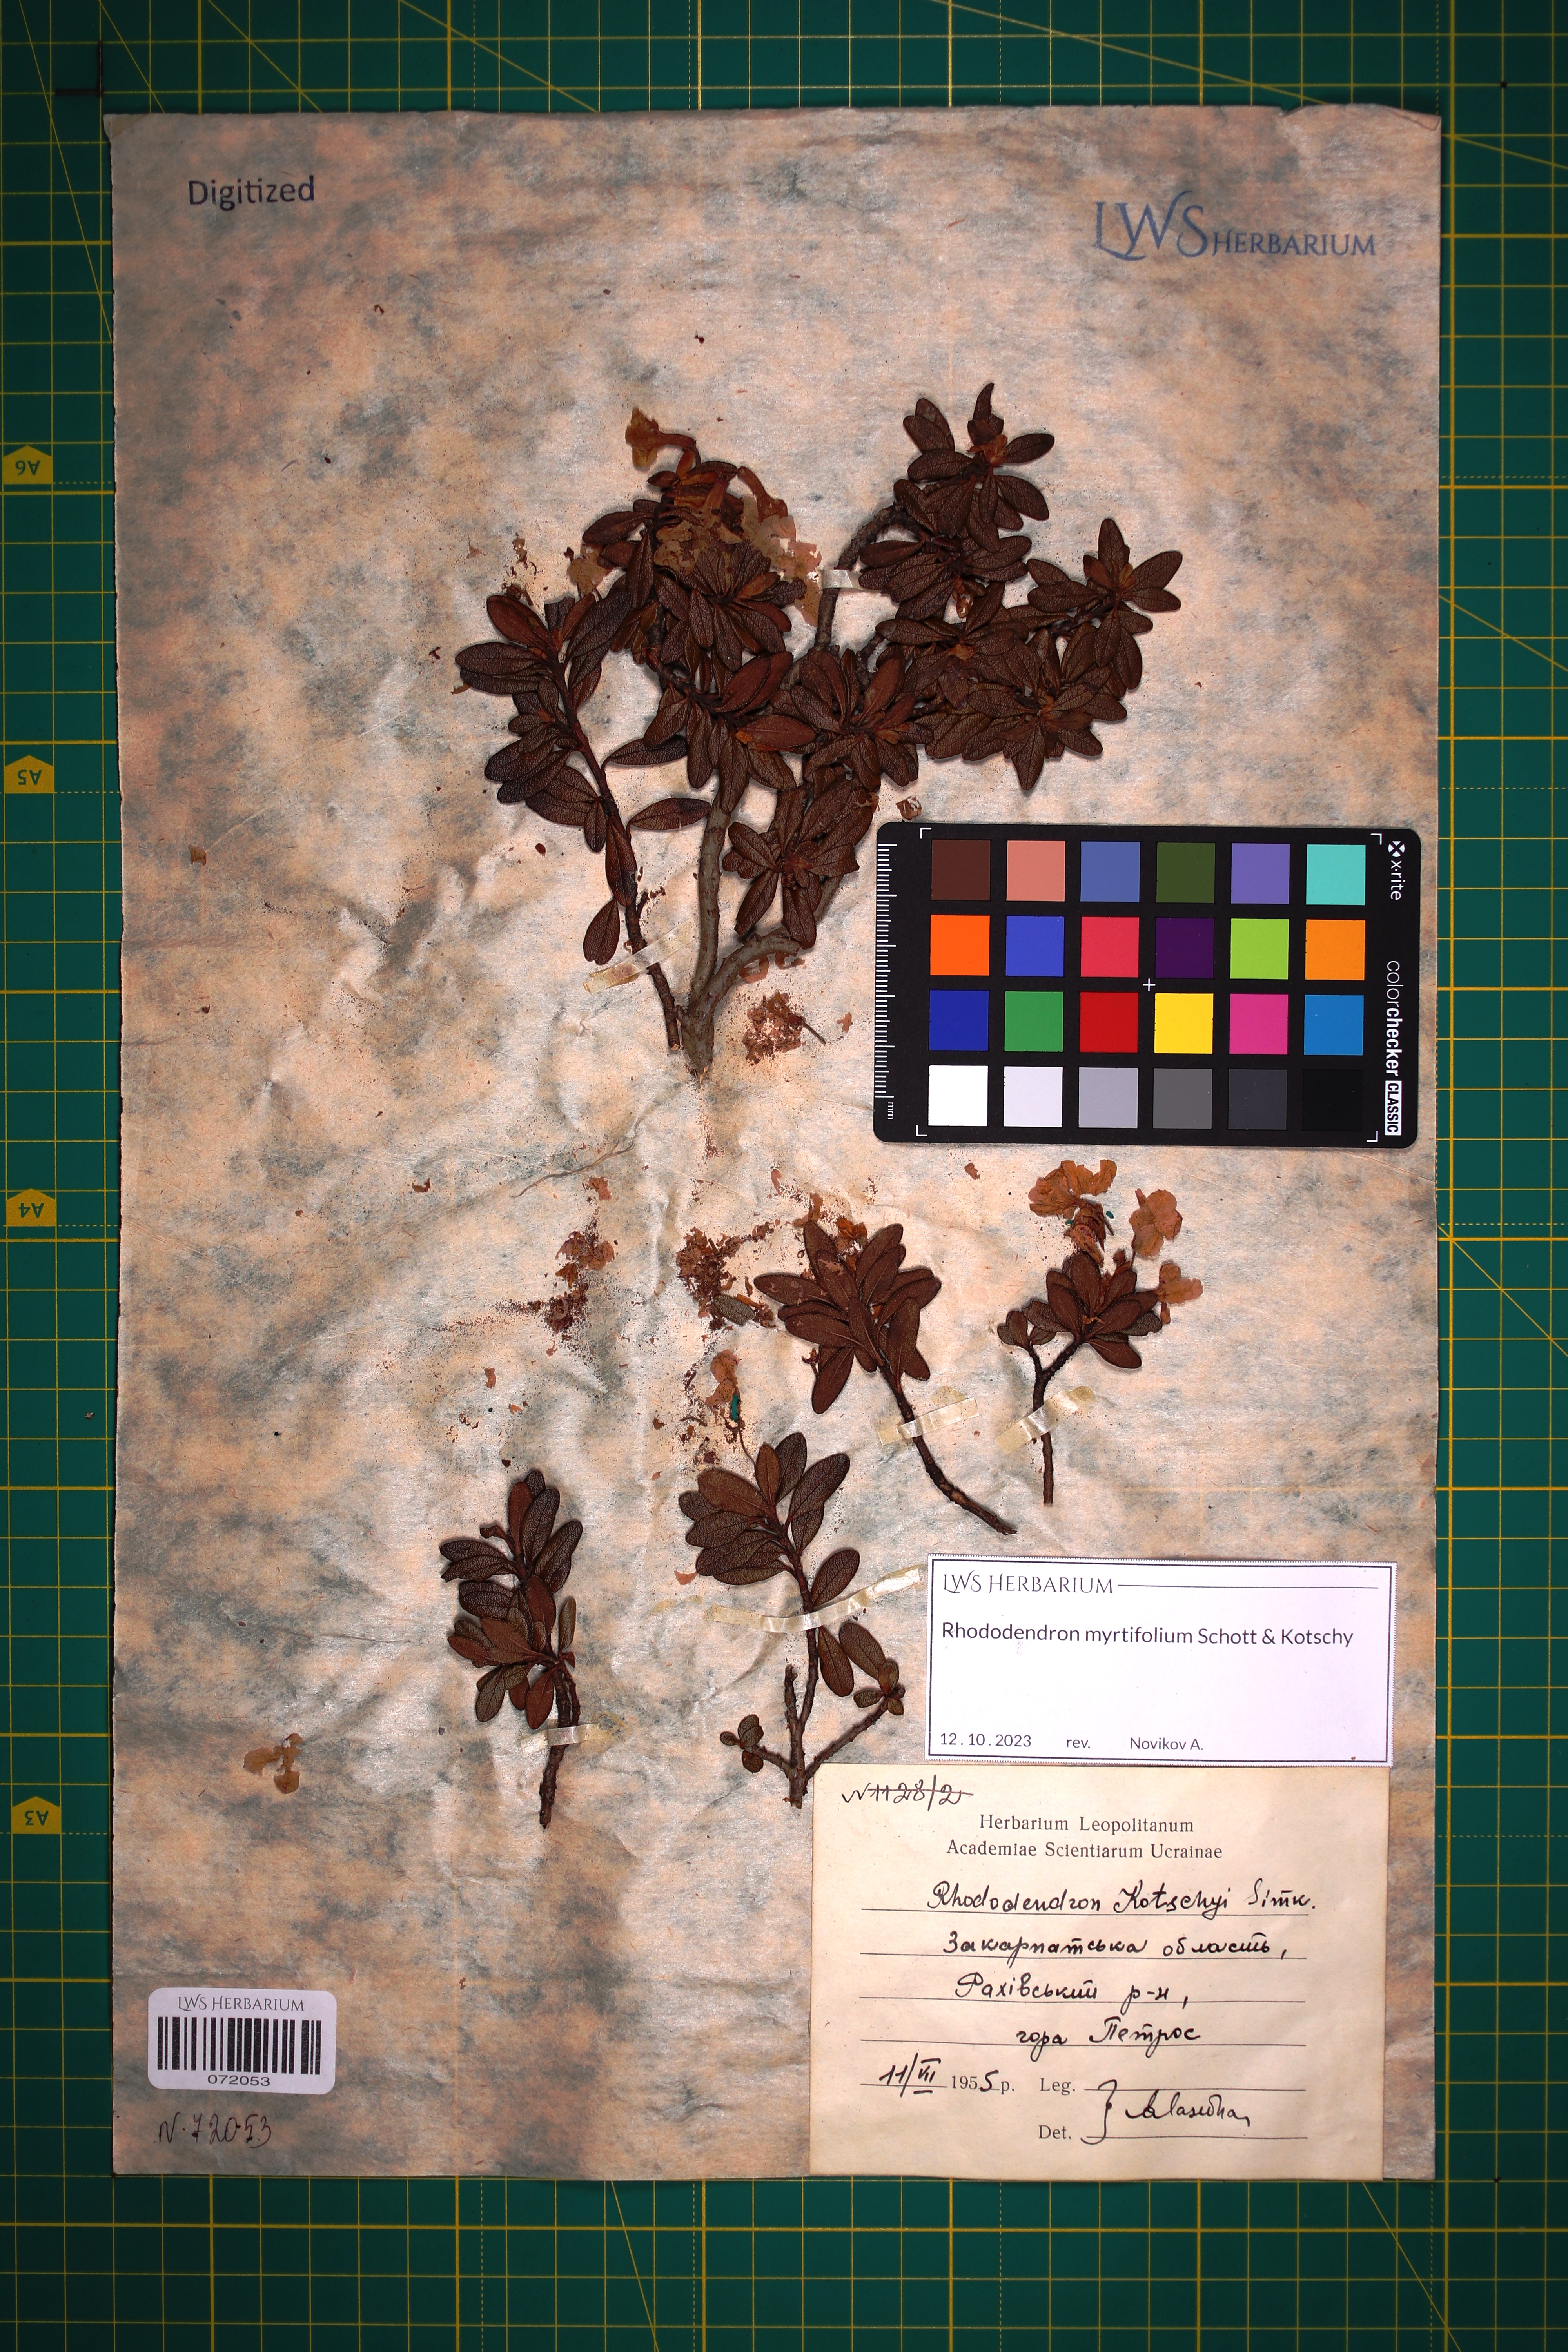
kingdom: Plantae
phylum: Tracheophyta
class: Magnoliopsida
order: Ericales
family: Ericaceae
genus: Rhododendron
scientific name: Rhododendron kotschyi
